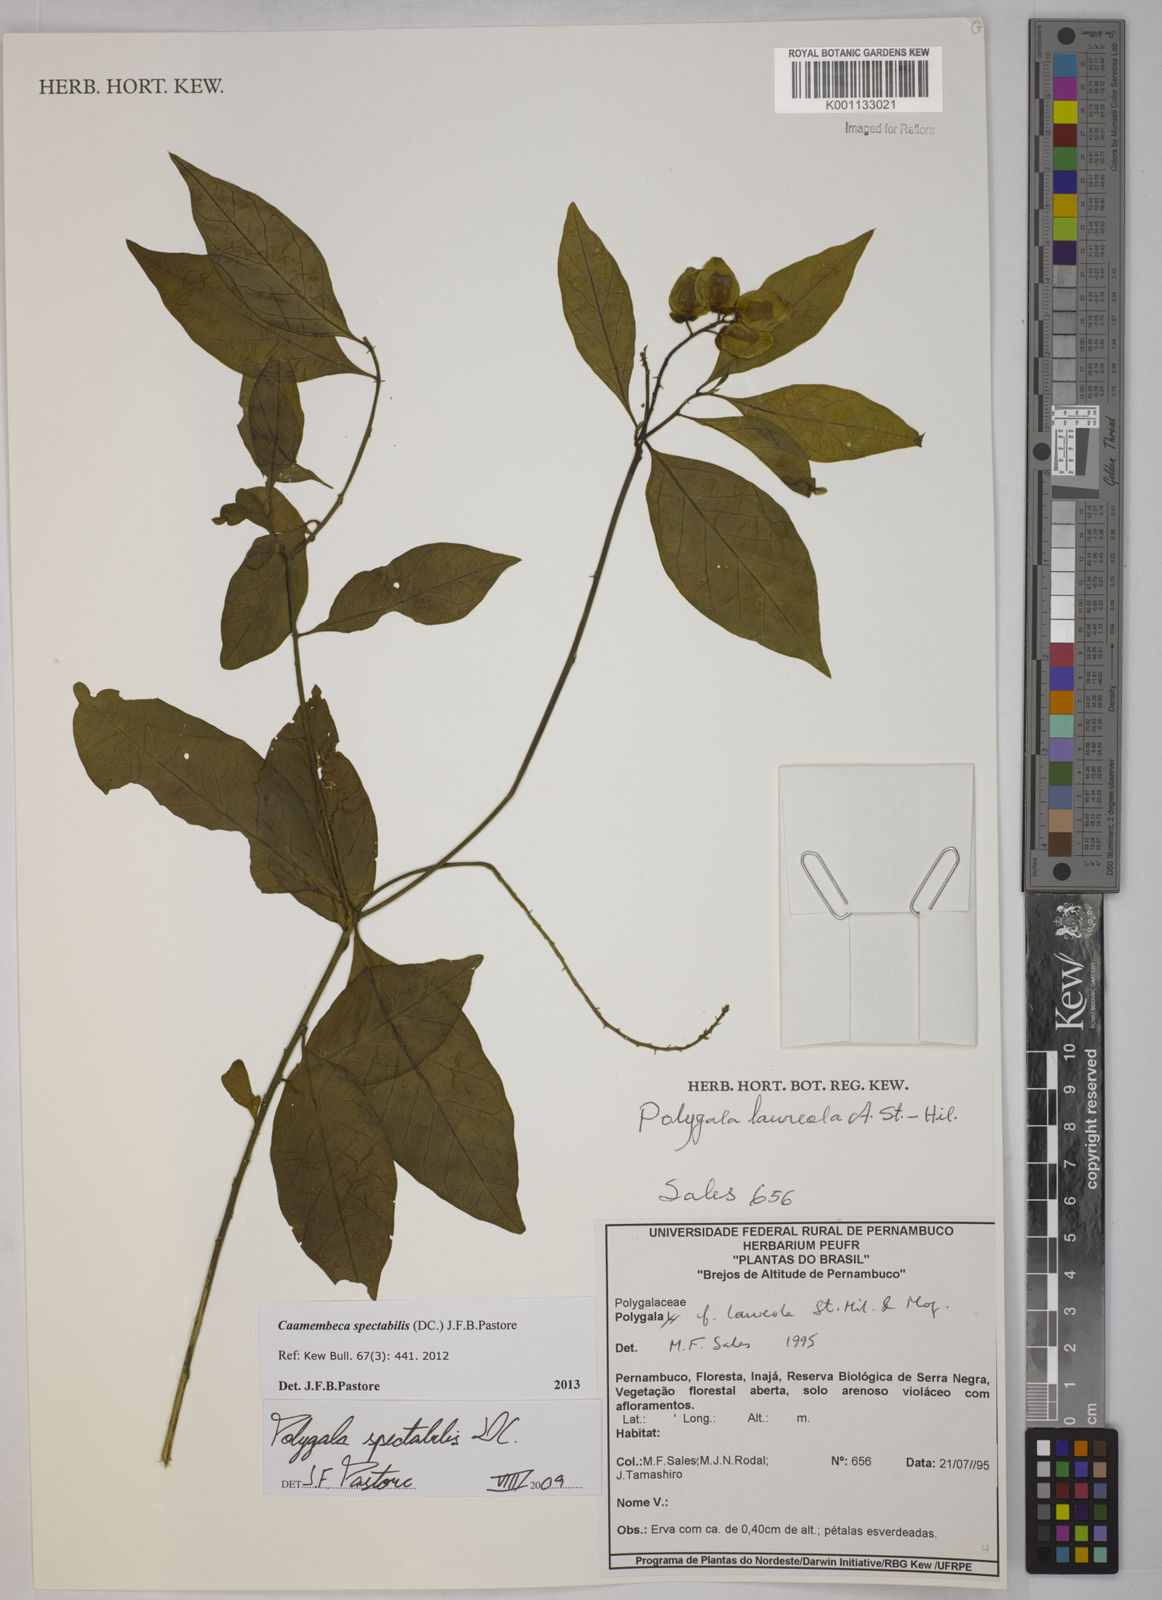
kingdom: Plantae
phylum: Tracheophyta
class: Magnoliopsida
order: Fabales
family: Polygalaceae
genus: Polygala
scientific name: Polygala
